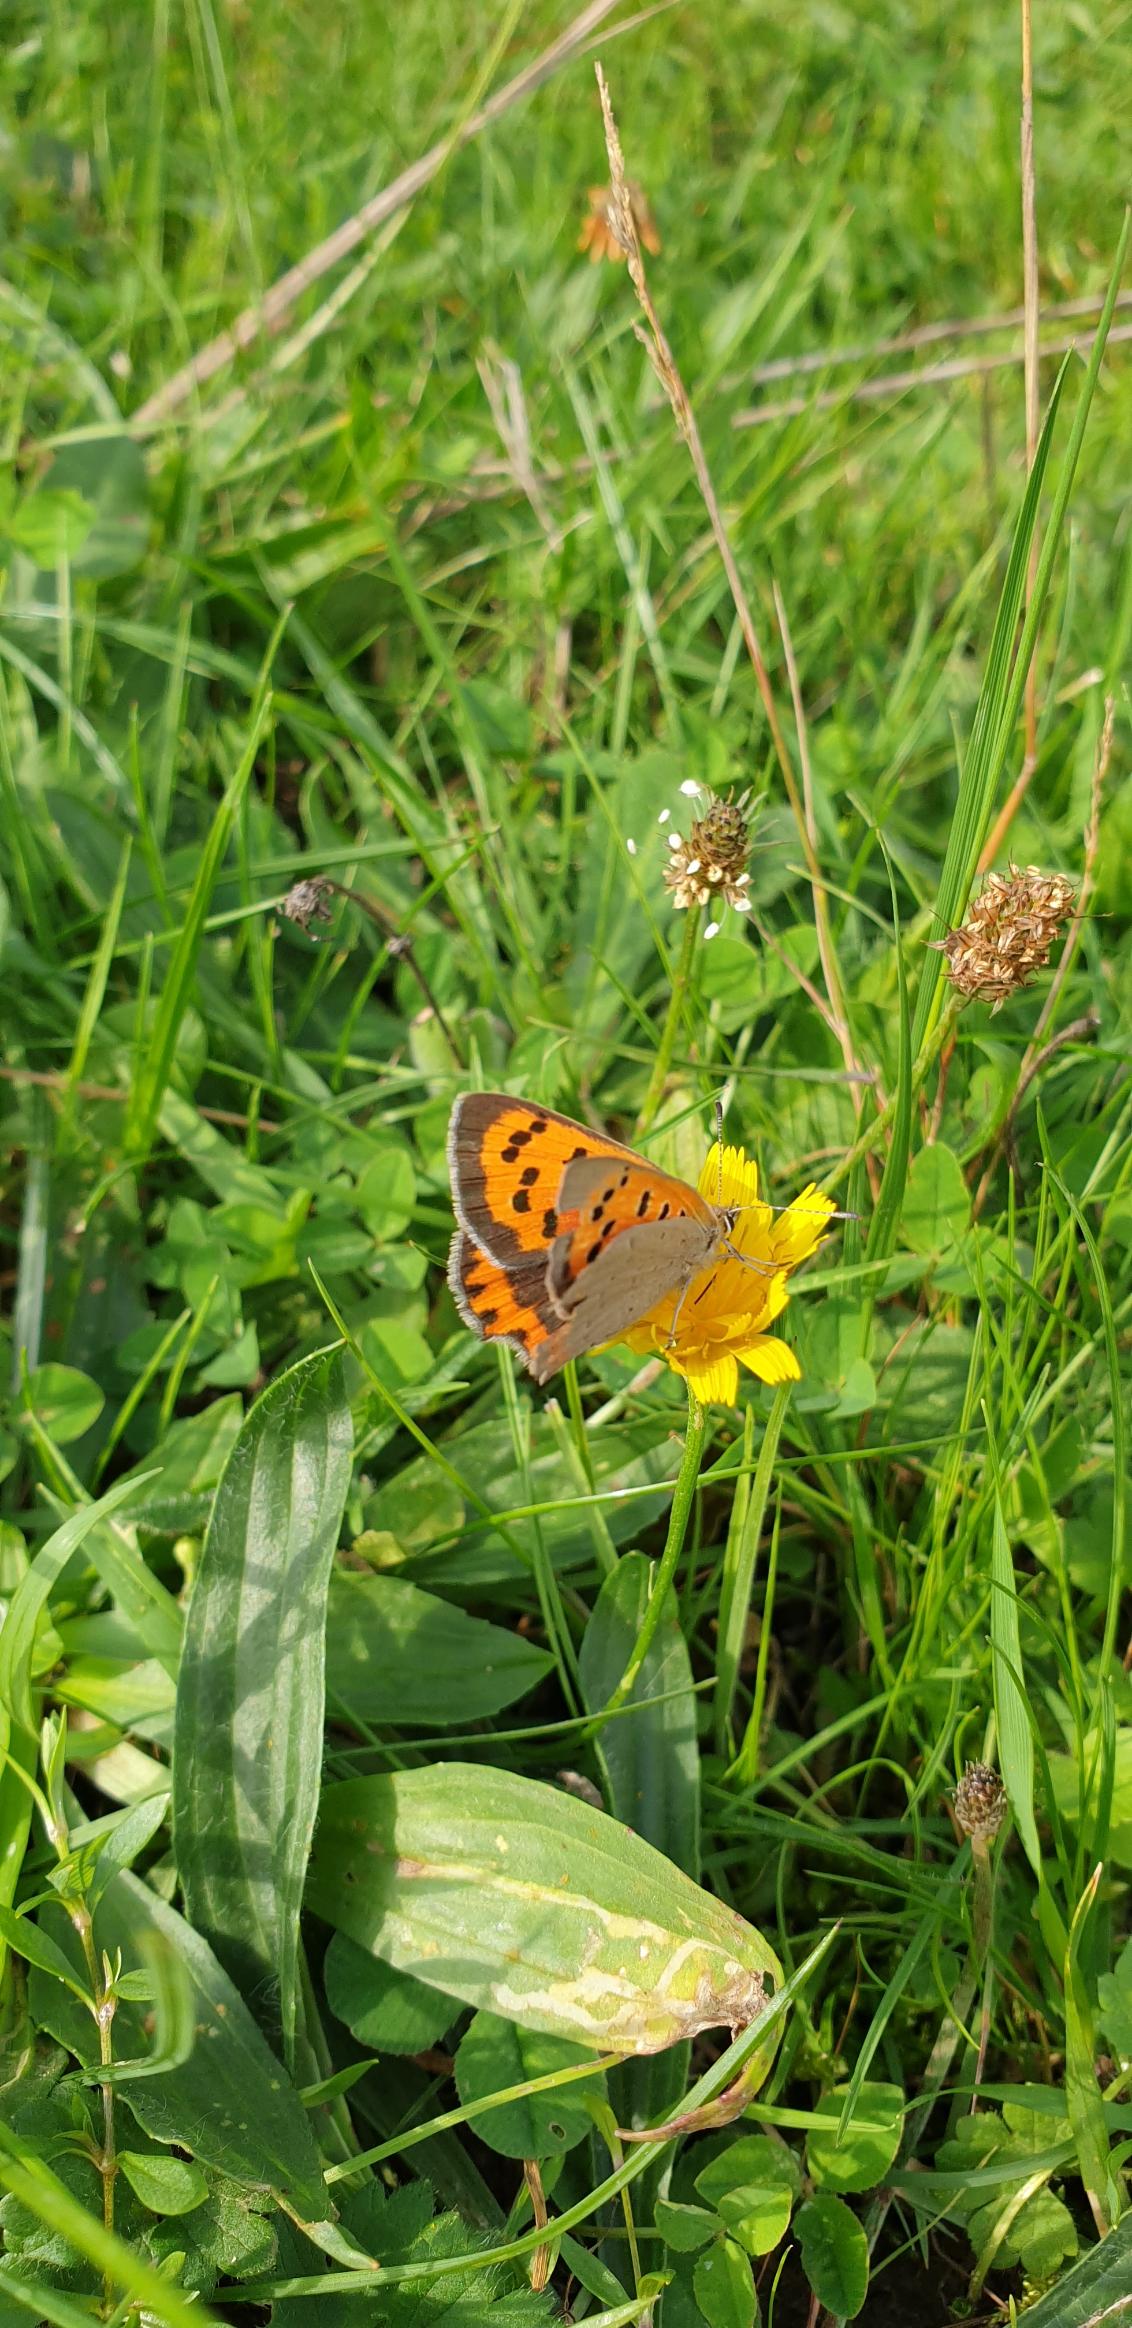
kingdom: Animalia
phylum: Arthropoda
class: Insecta
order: Lepidoptera
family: Lycaenidae
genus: Lycaena
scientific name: Lycaena phlaeas
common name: Lille ildfugl
